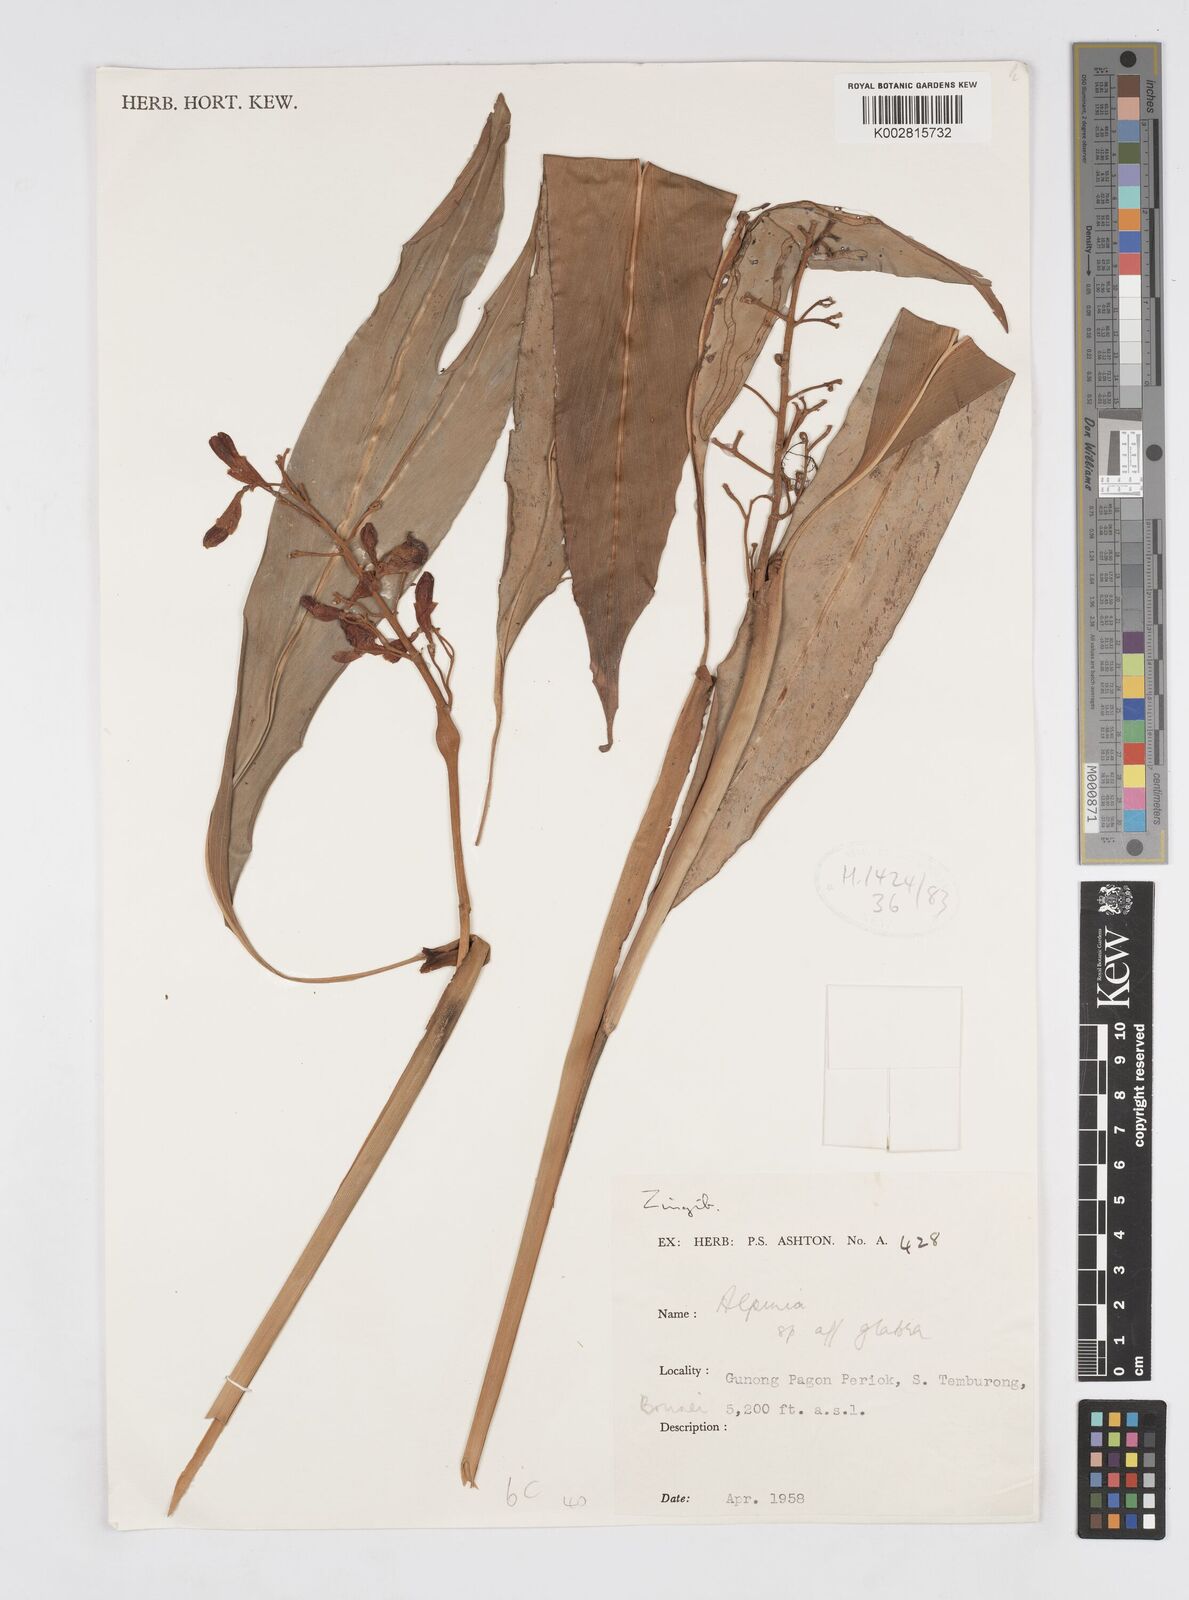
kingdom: Plantae
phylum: Tracheophyta
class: Liliopsida
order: Zingiberales
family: Zingiberaceae
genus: Alpinia
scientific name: Alpinia glabra
